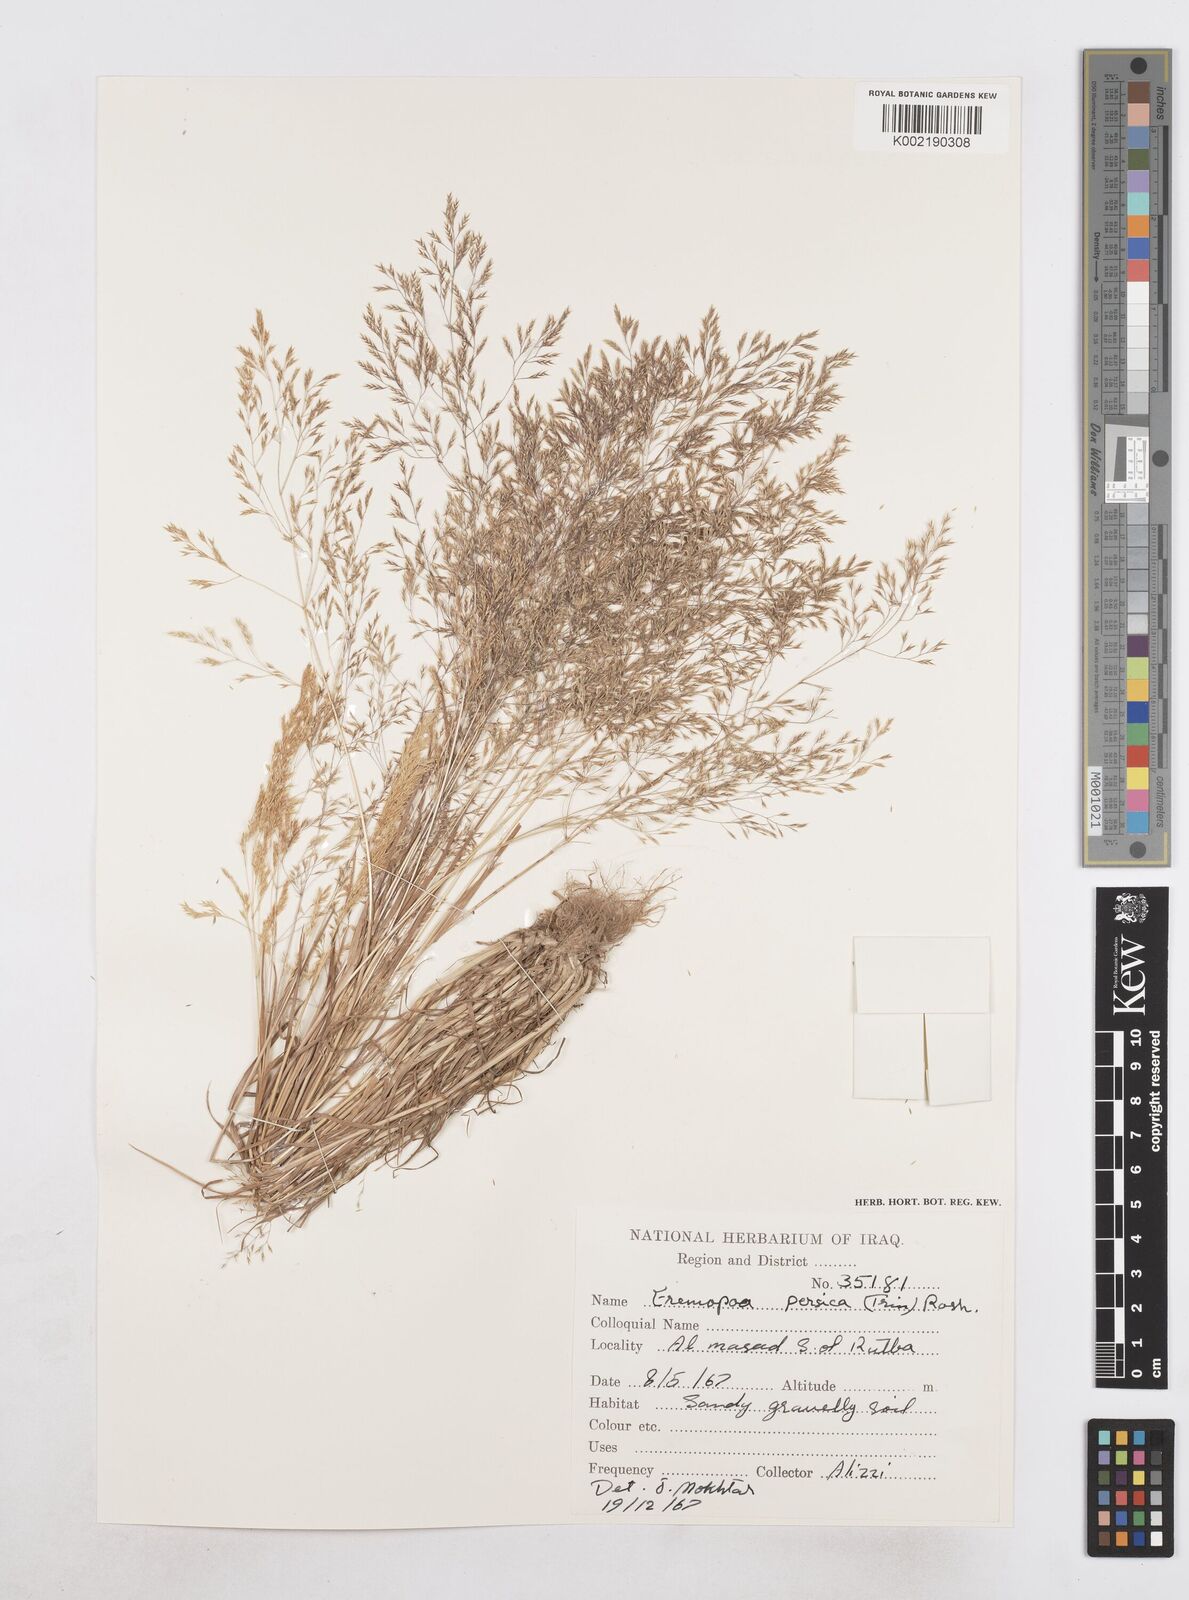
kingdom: Plantae
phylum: Tracheophyta
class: Liliopsida
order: Poales
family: Poaceae
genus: Poa
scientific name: Poa persica
